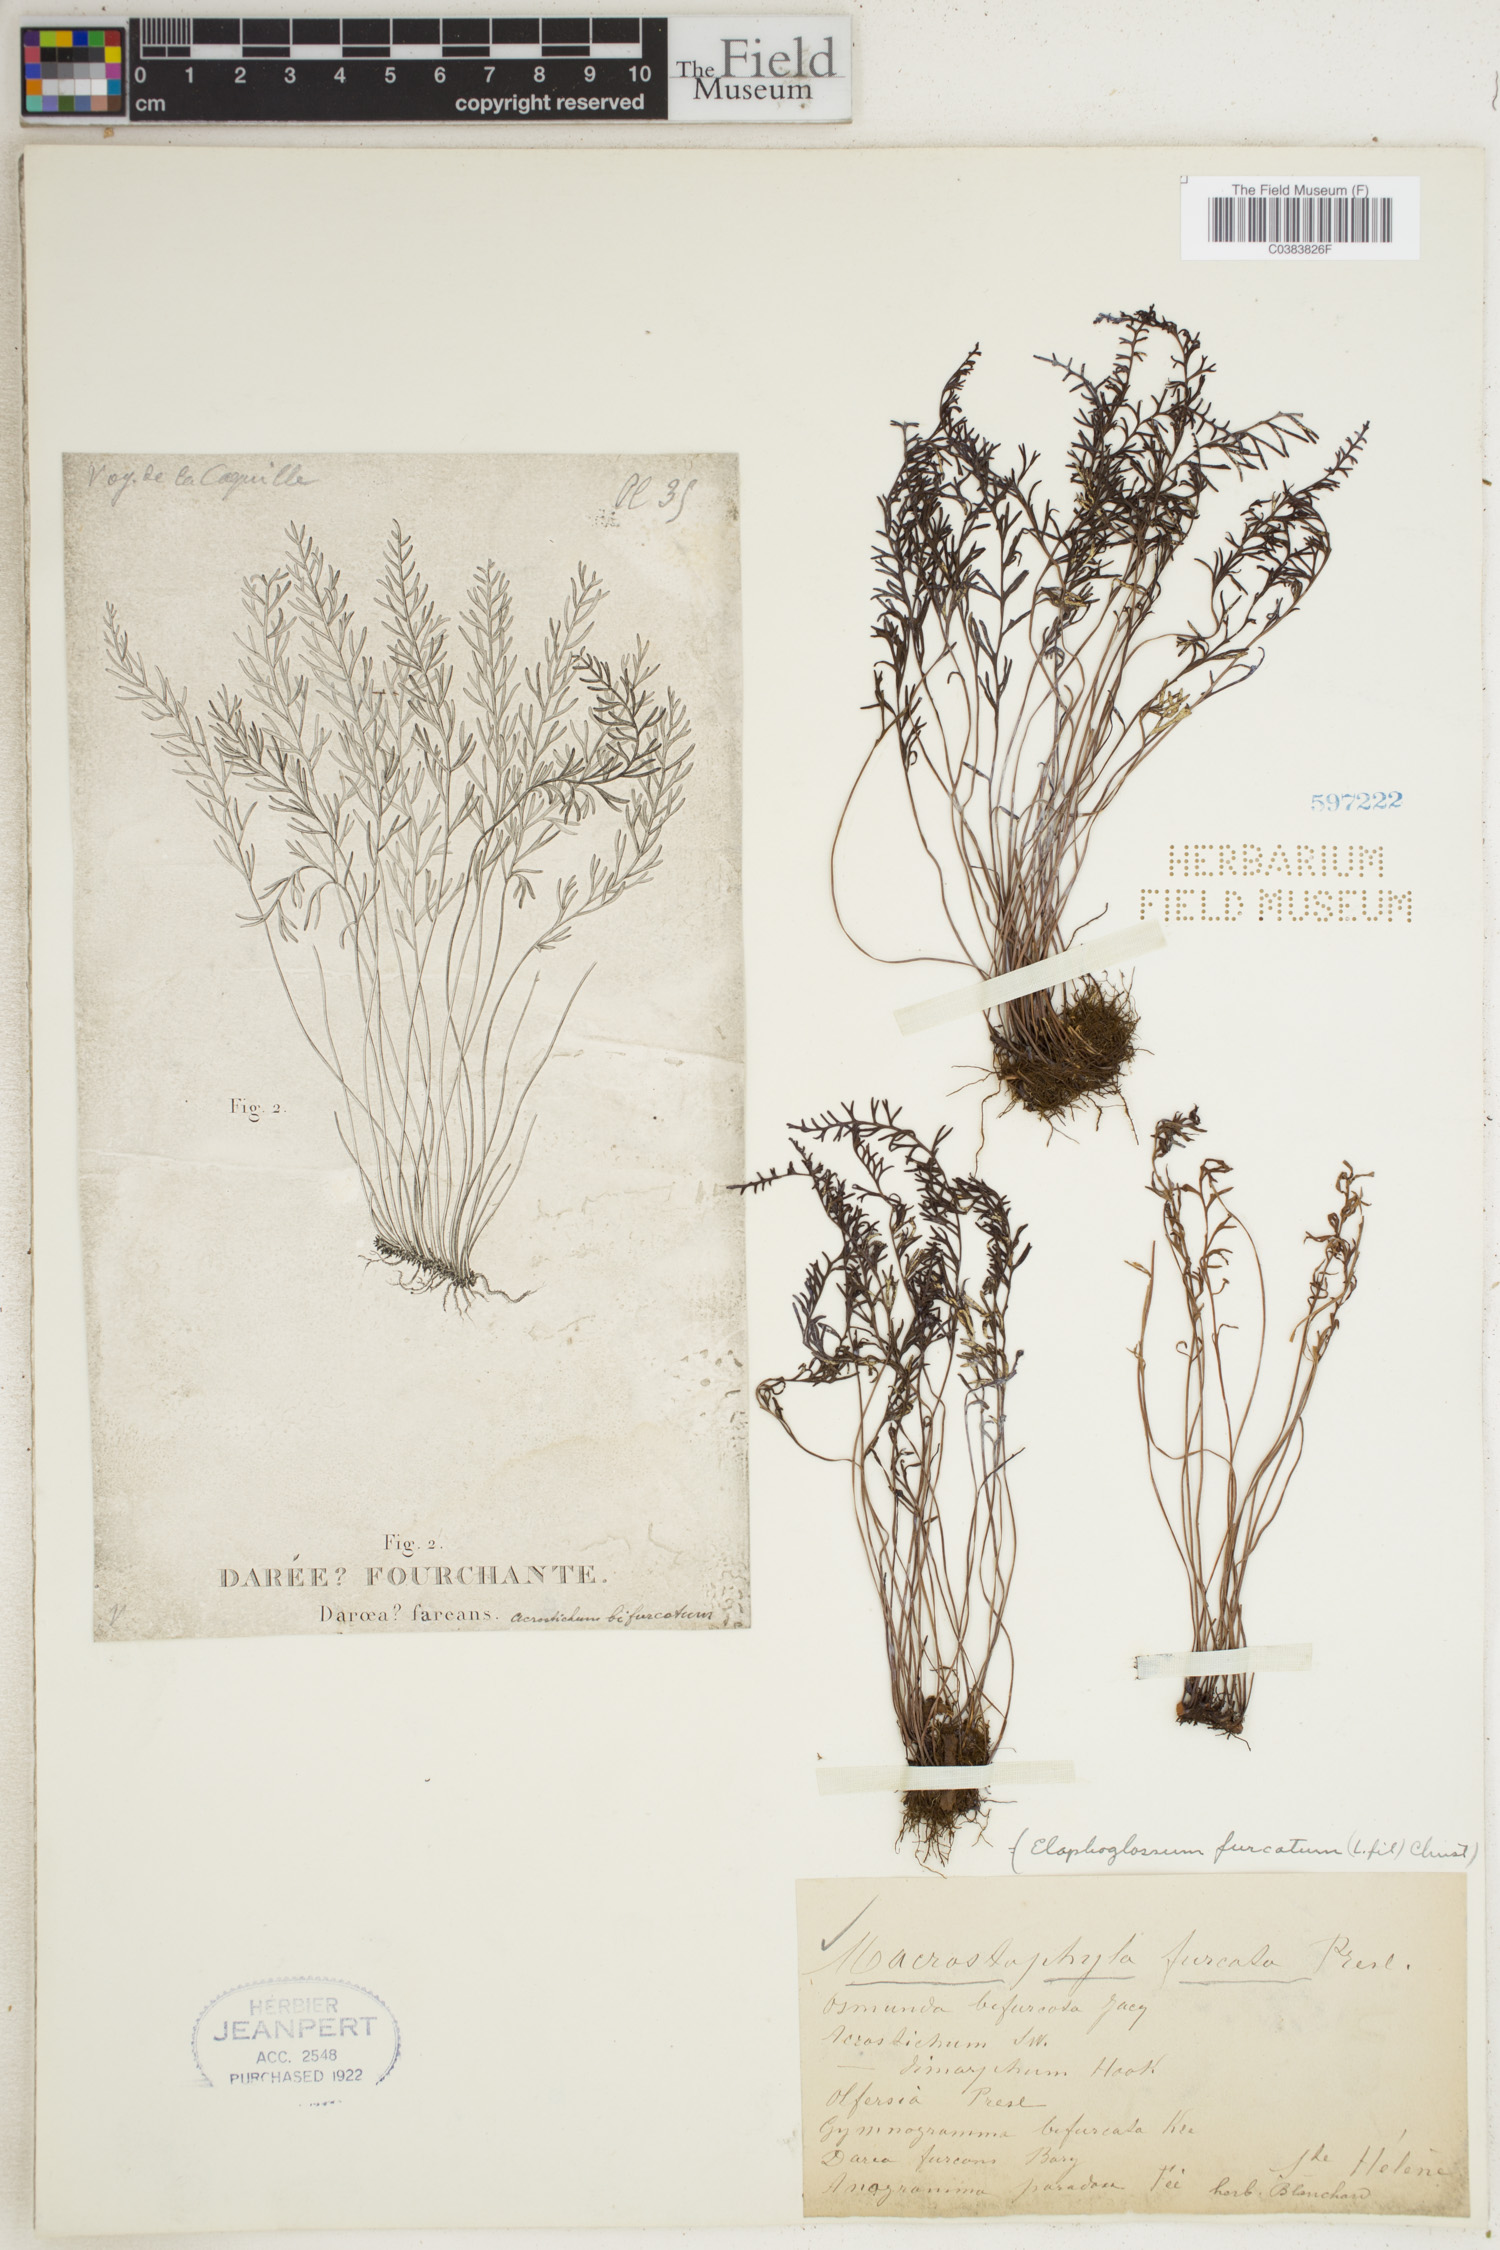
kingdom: Plantae
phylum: Tracheophyta
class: Polypodiopsida
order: Polypodiales
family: Dryopteridaceae
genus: Elaphoglossum
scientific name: Elaphoglossum furcatum
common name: Mossy fern
